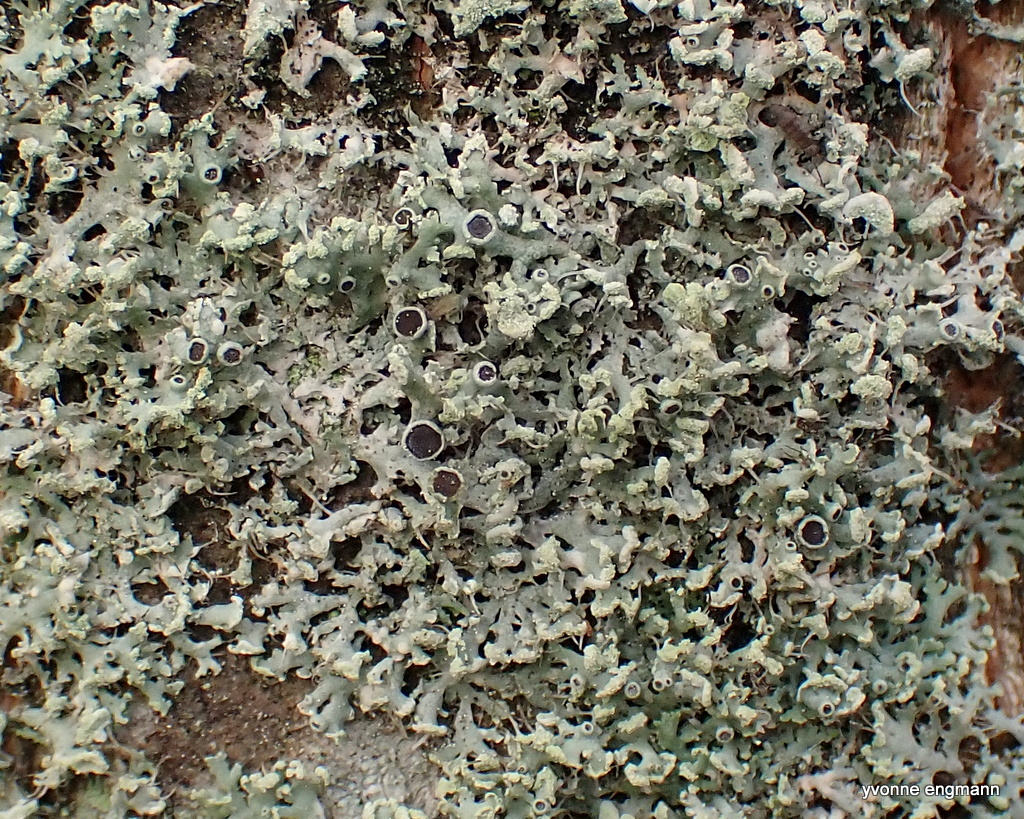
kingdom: Fungi
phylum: Ascomycota
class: Lecanoromycetes
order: Caliciales
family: Physciaceae
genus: Physcia
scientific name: Physcia tenella
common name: spæd rosetlav
